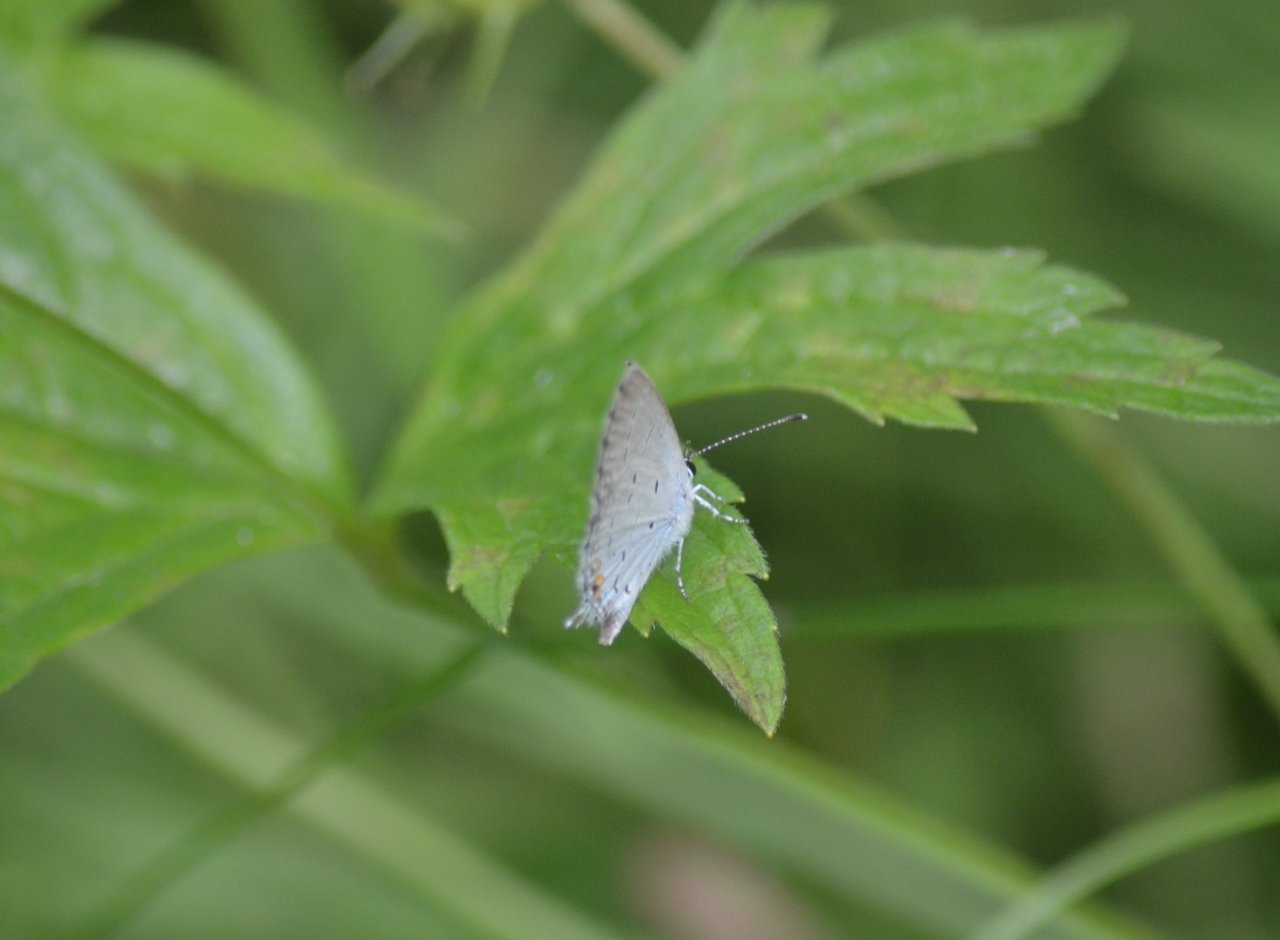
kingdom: Animalia
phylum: Arthropoda
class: Insecta
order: Lepidoptera
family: Lycaenidae
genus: Elkalyce
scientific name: Elkalyce comyntas
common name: Eastern Tailed-Blue
